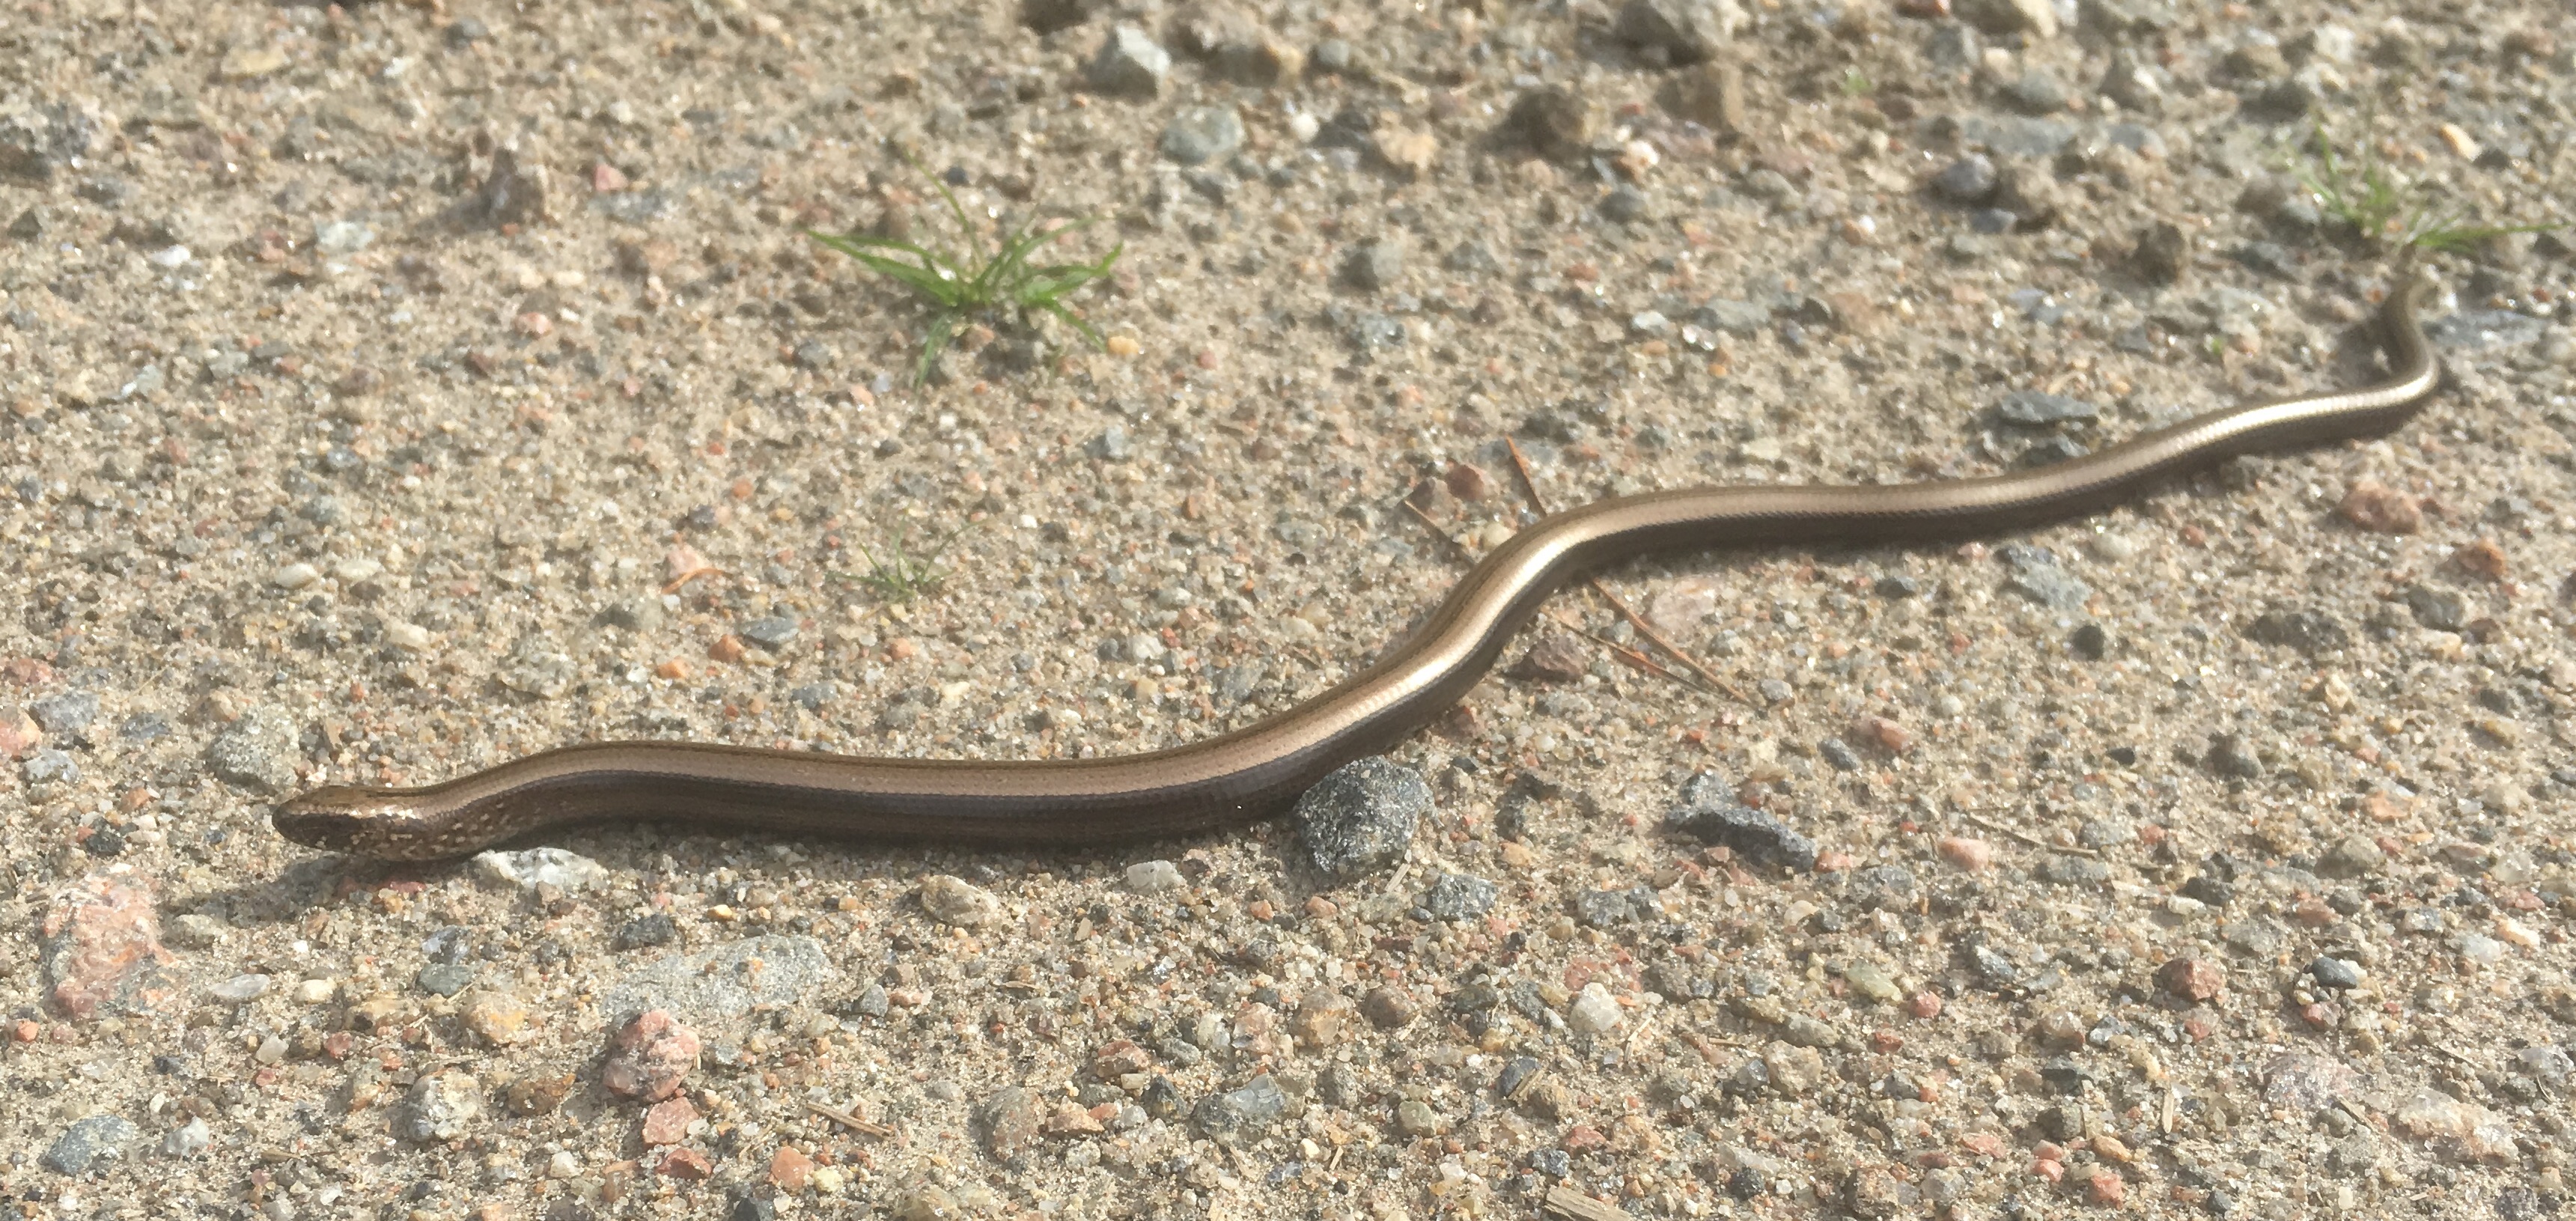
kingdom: Animalia
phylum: Chordata
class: Squamata
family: Anguidae
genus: Anguis
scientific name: Anguis colchica
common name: Slow worm
